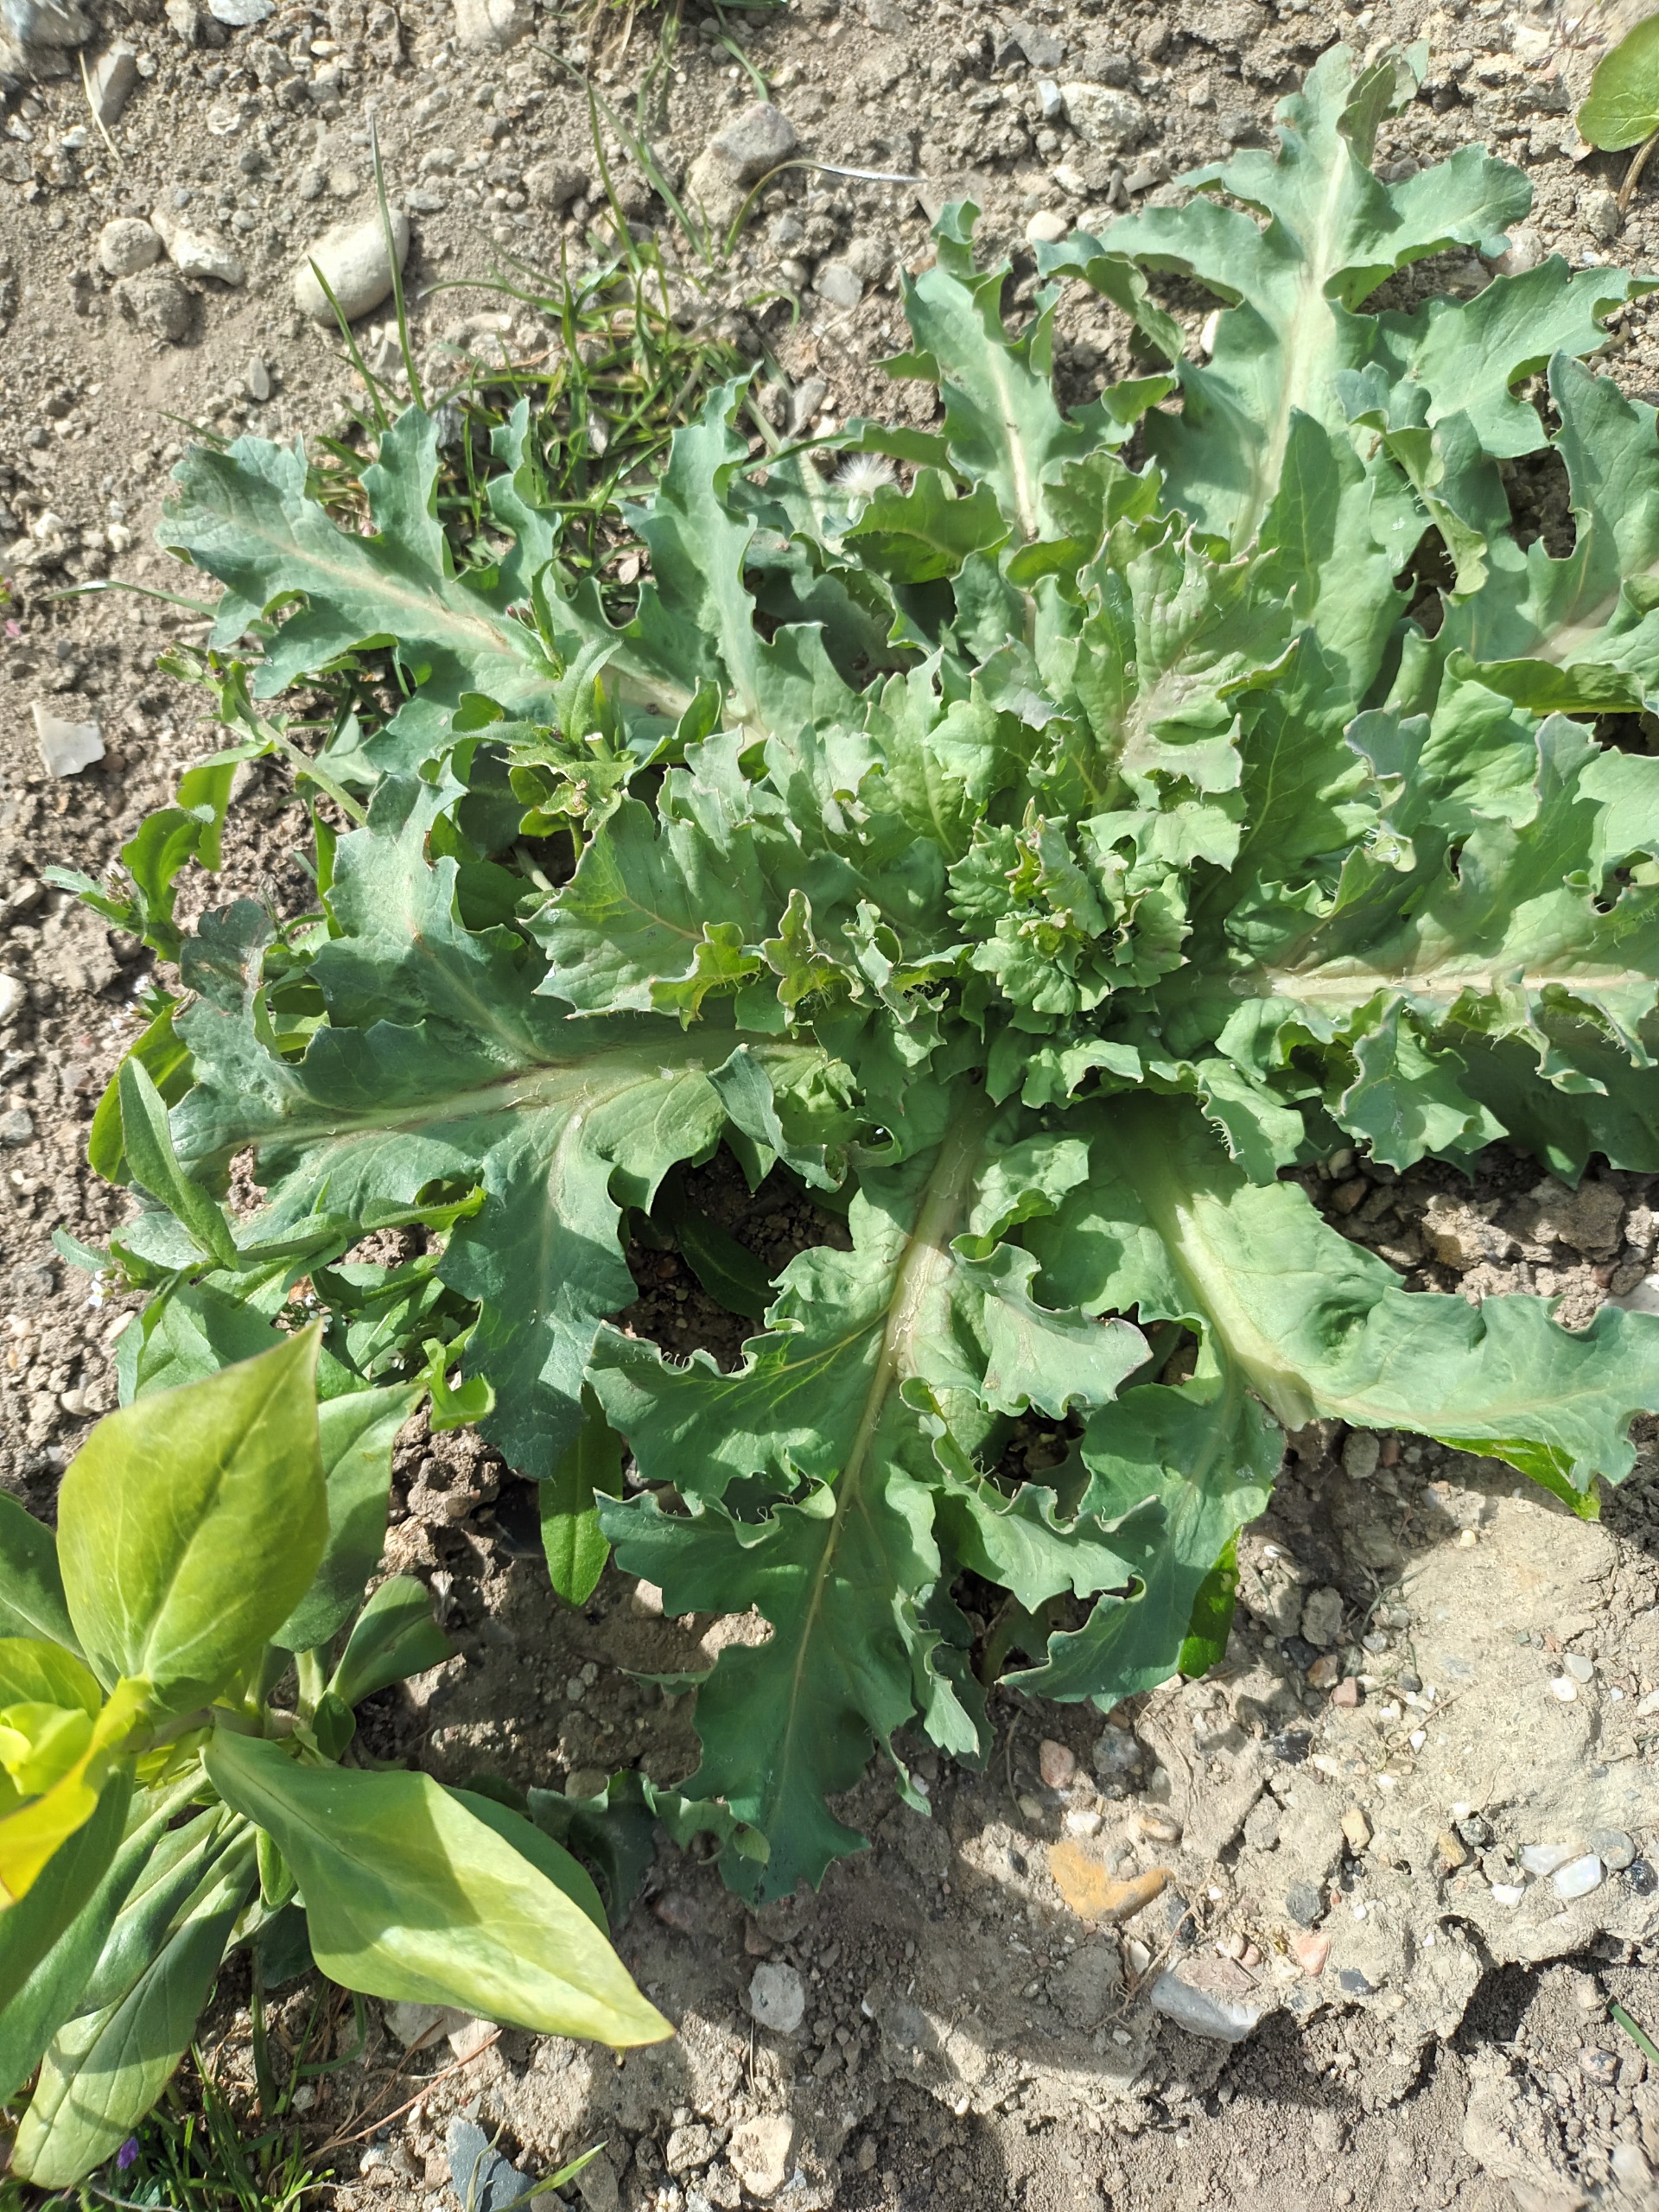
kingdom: Plantae
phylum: Tracheophyta
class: Magnoliopsida
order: Solanales
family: Solanaceae
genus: Hyoscyamus
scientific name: Hyoscyamus niger
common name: Bulmeurt
